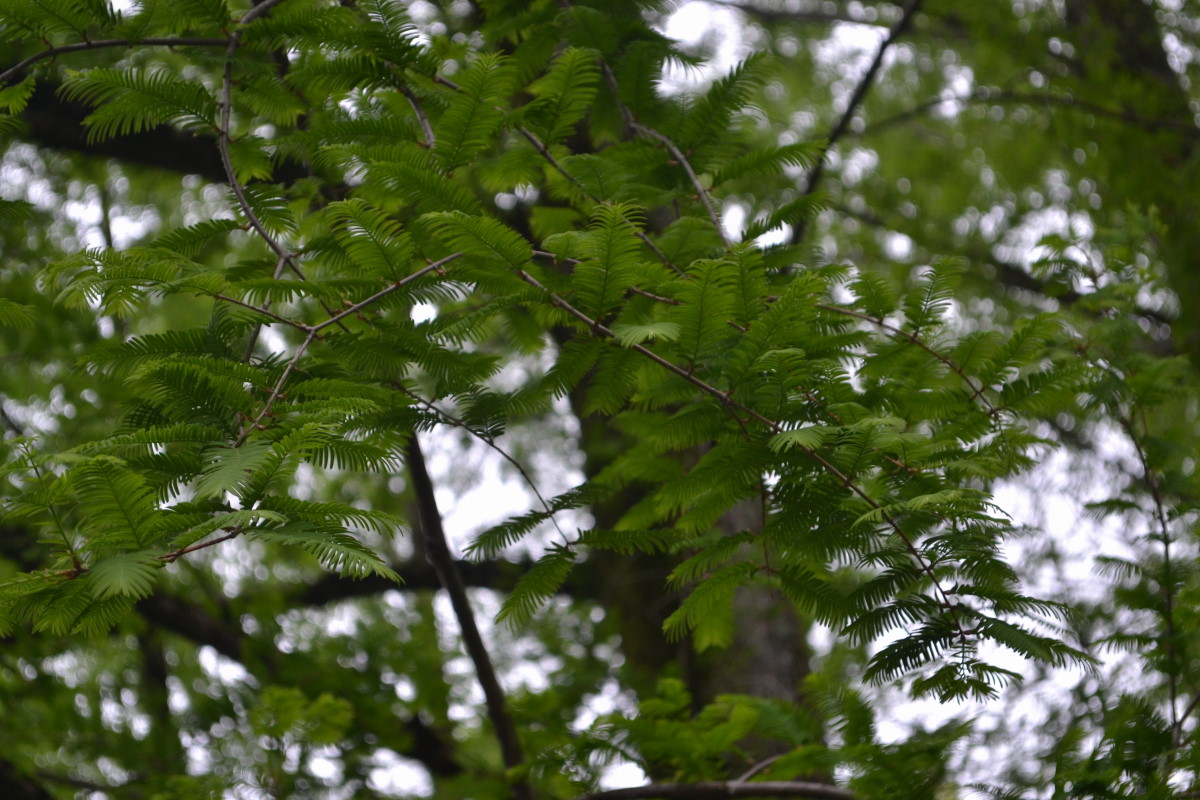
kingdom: Plantae
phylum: Tracheophyta
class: Pinopsida
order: Pinales
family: Cupressaceae
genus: Metasequoia
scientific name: Metasequoia glyptostroboides
